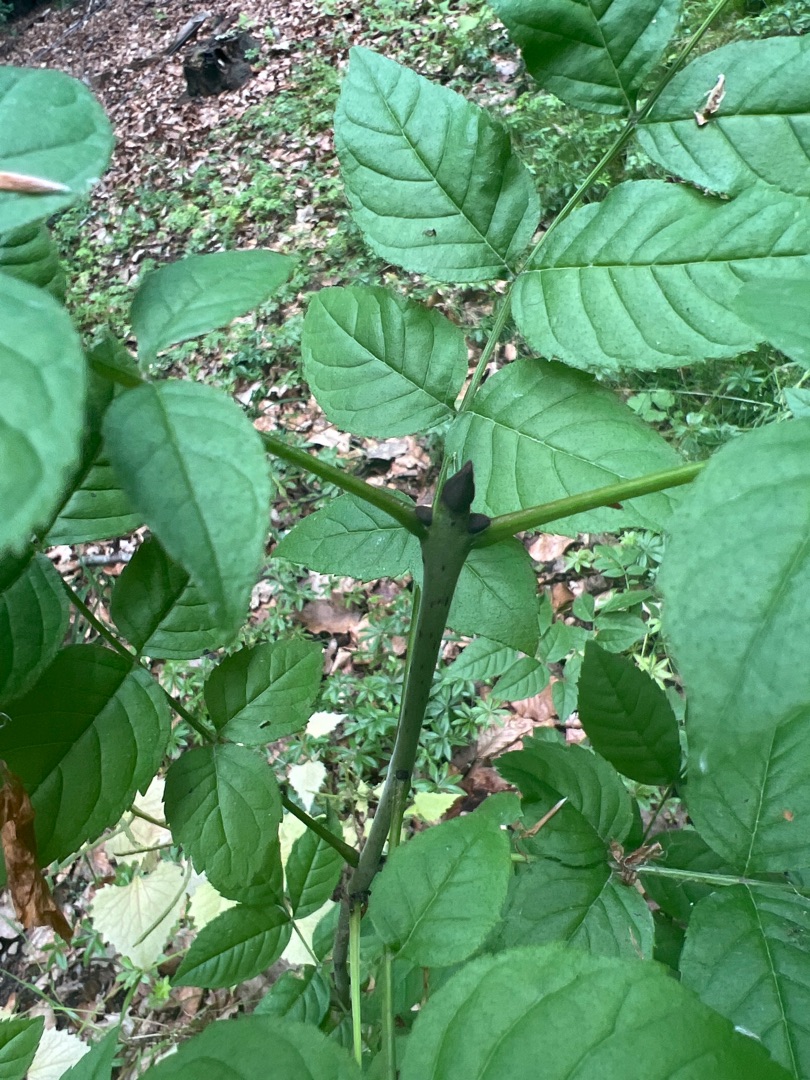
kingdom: Plantae
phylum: Tracheophyta
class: Magnoliopsida
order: Lamiales
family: Oleaceae
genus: Fraxinus
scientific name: Fraxinus excelsior
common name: Ask
